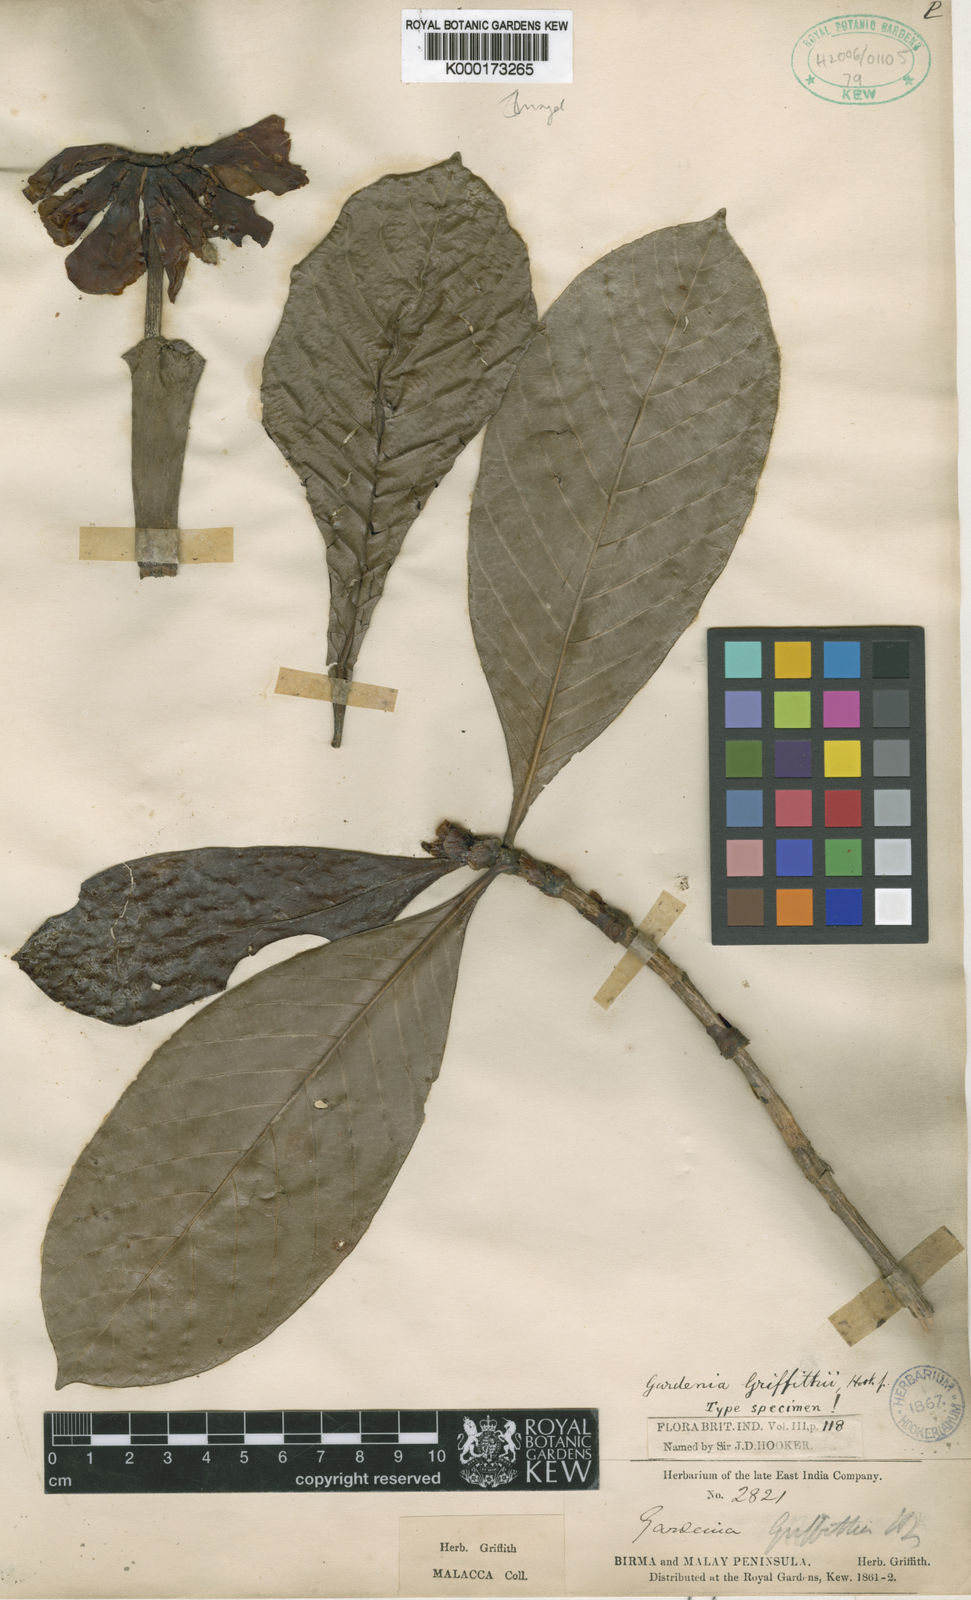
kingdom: Plantae
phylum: Tracheophyta
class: Magnoliopsida
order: Gentianales
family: Rubiaceae
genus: Gardenia
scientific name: Gardenia griffithii
